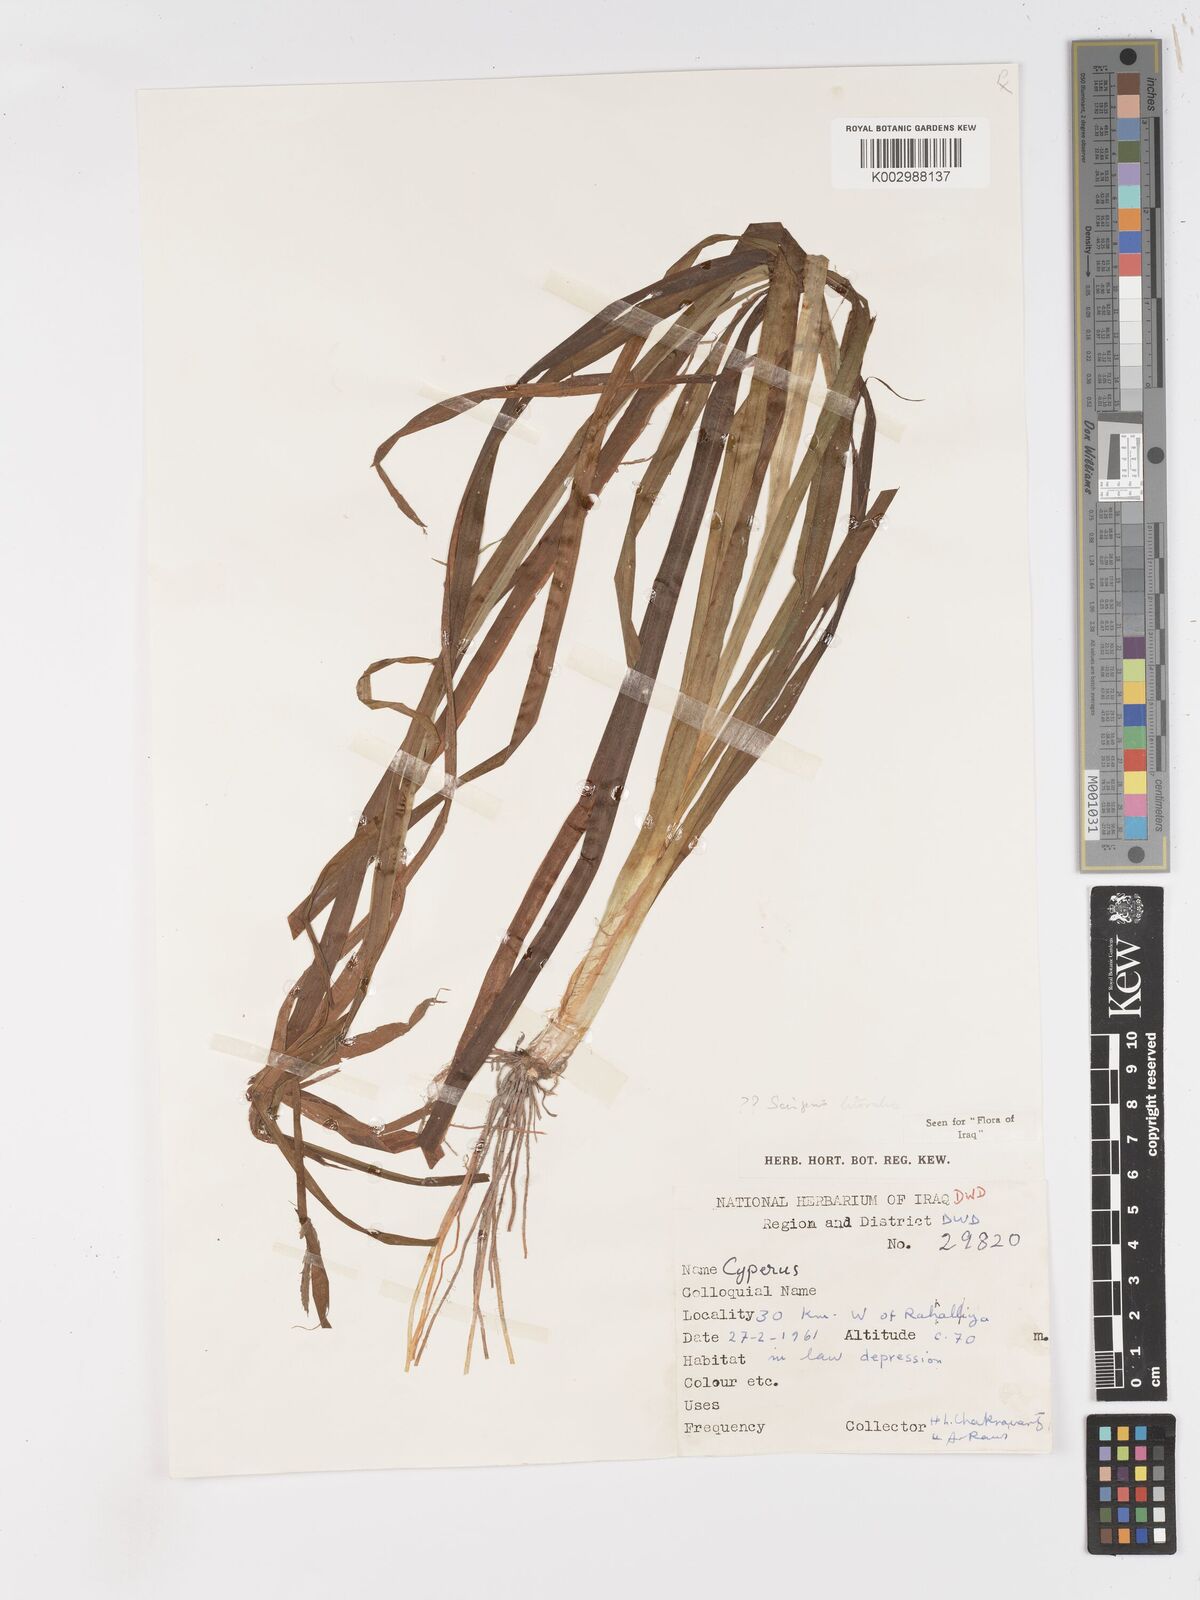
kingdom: Plantae
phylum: Tracheophyta
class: Liliopsida
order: Poales
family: Cyperaceae
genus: Schoenoplectus
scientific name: Schoenoplectus litoralis
